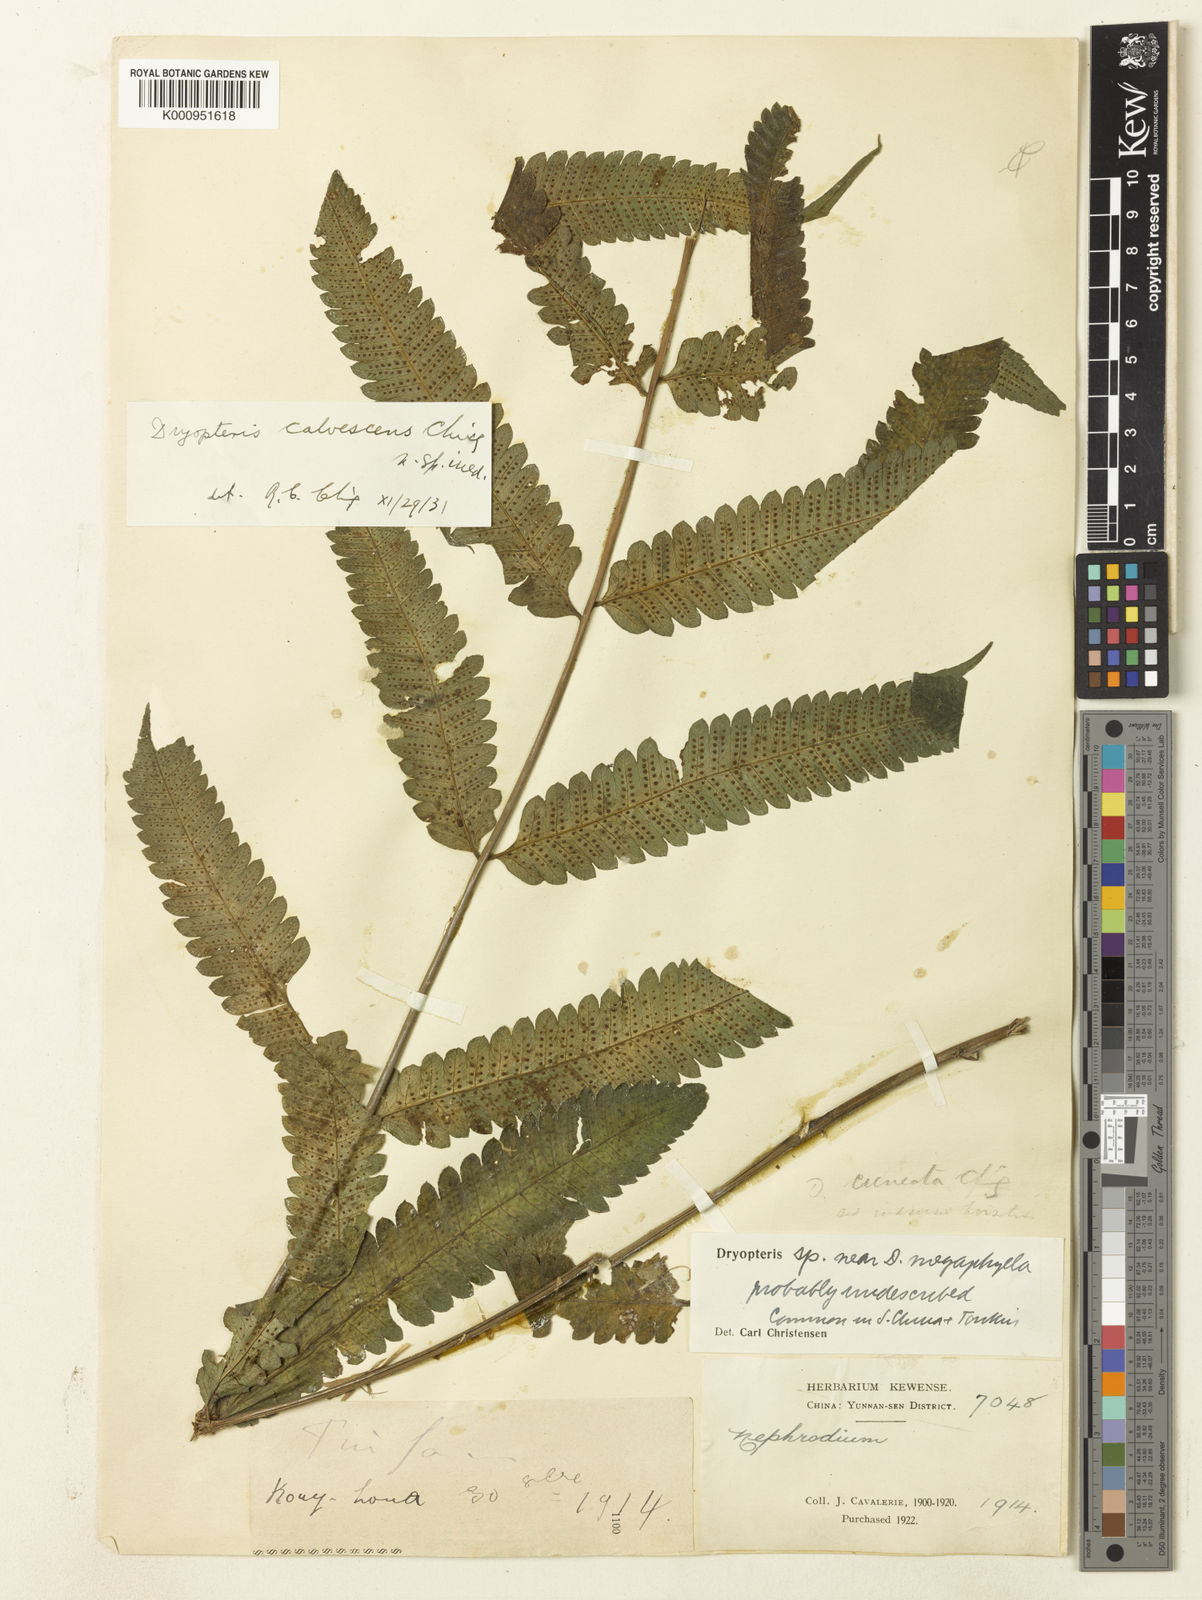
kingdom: Plantae
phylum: Tracheophyta
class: Polypodiopsida
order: Polypodiales
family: Thelypteridaceae
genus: Christella
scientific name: Christella calvescens
